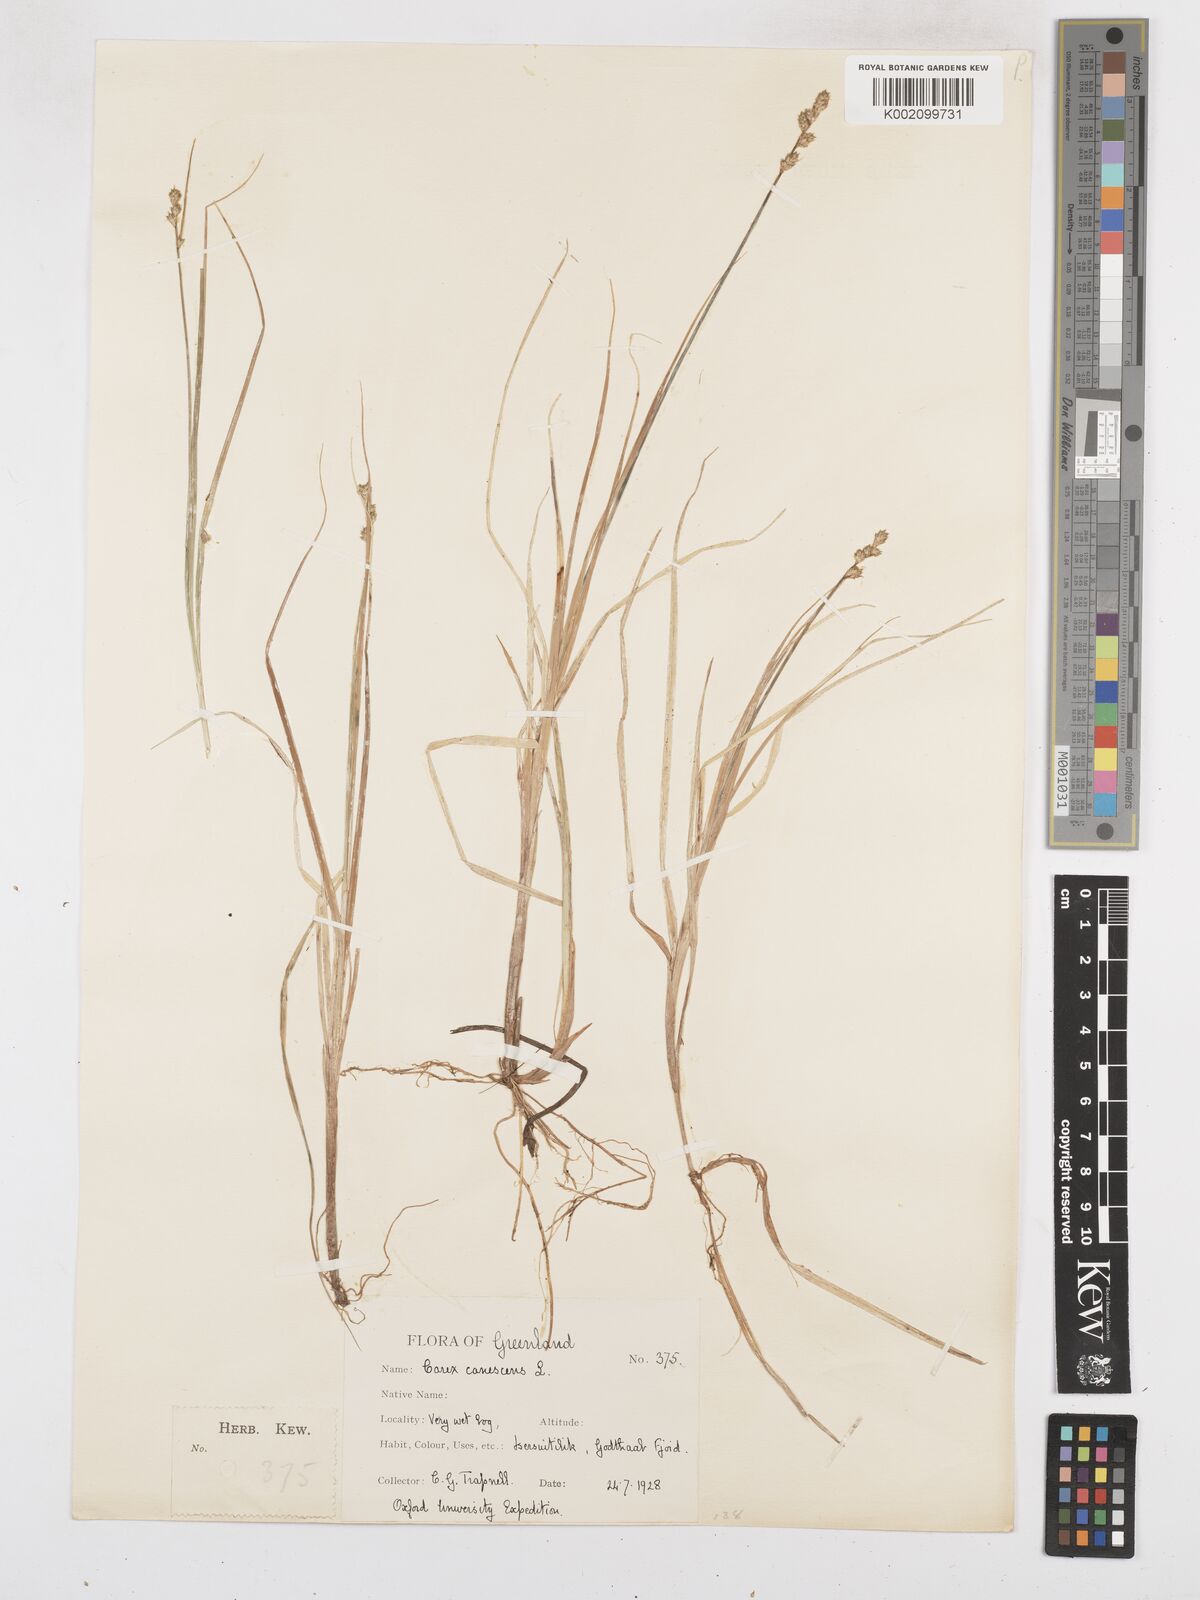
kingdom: Plantae
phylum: Tracheophyta
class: Liliopsida
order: Poales
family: Cyperaceae
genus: Carex
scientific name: Carex curta
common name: White sedge
